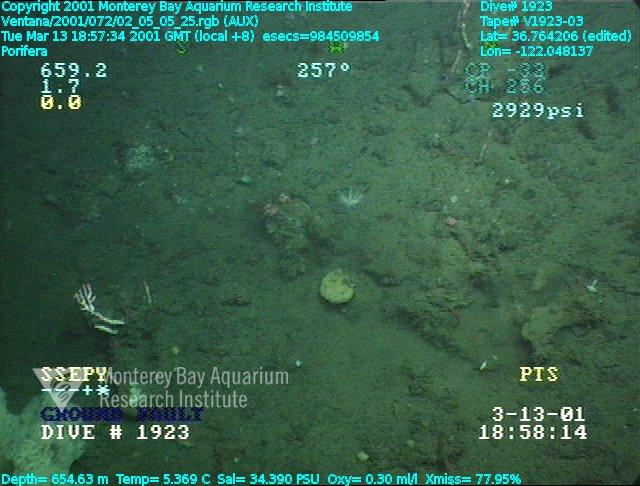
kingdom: Animalia
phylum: Porifera
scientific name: Porifera
